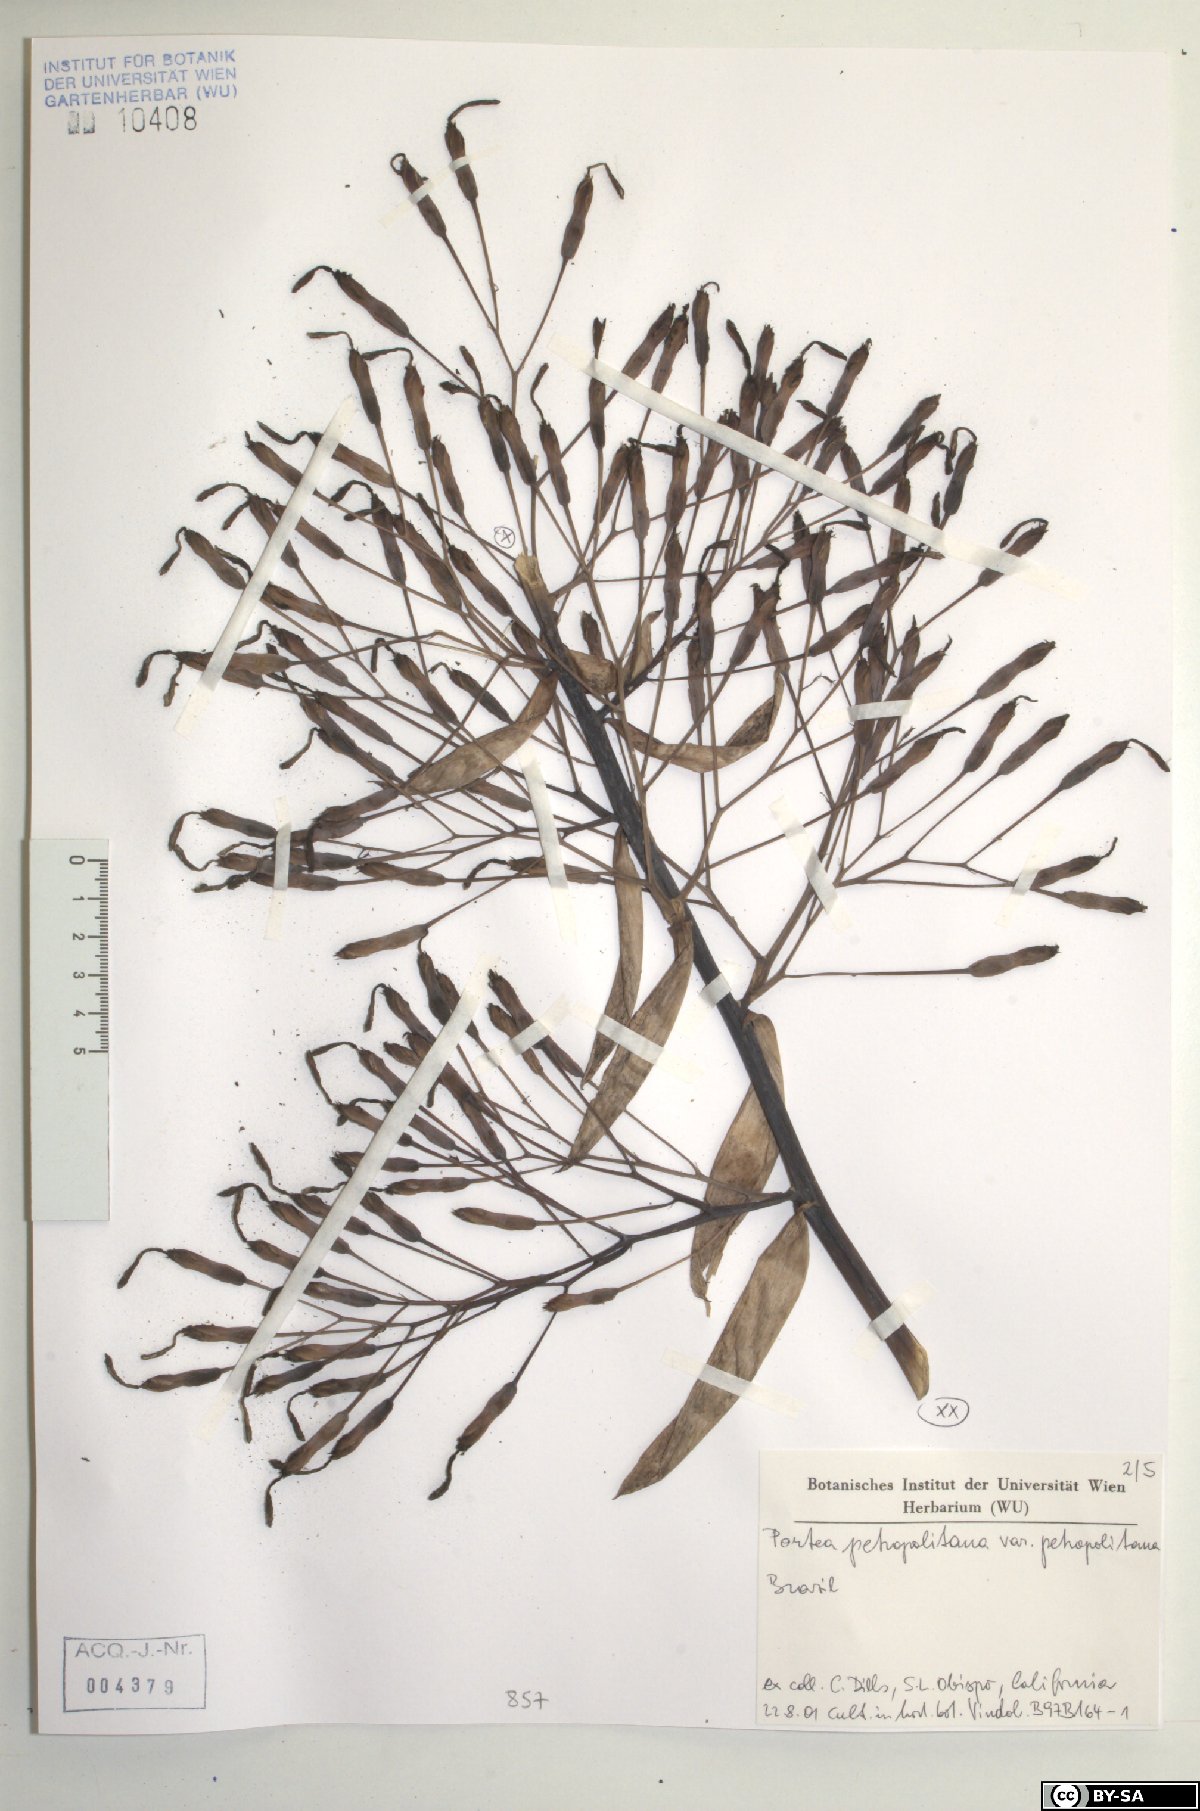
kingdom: Plantae
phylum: Tracheophyta
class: Liliopsida
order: Poales
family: Bromeliaceae
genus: Portea
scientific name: Portea petropolitana
